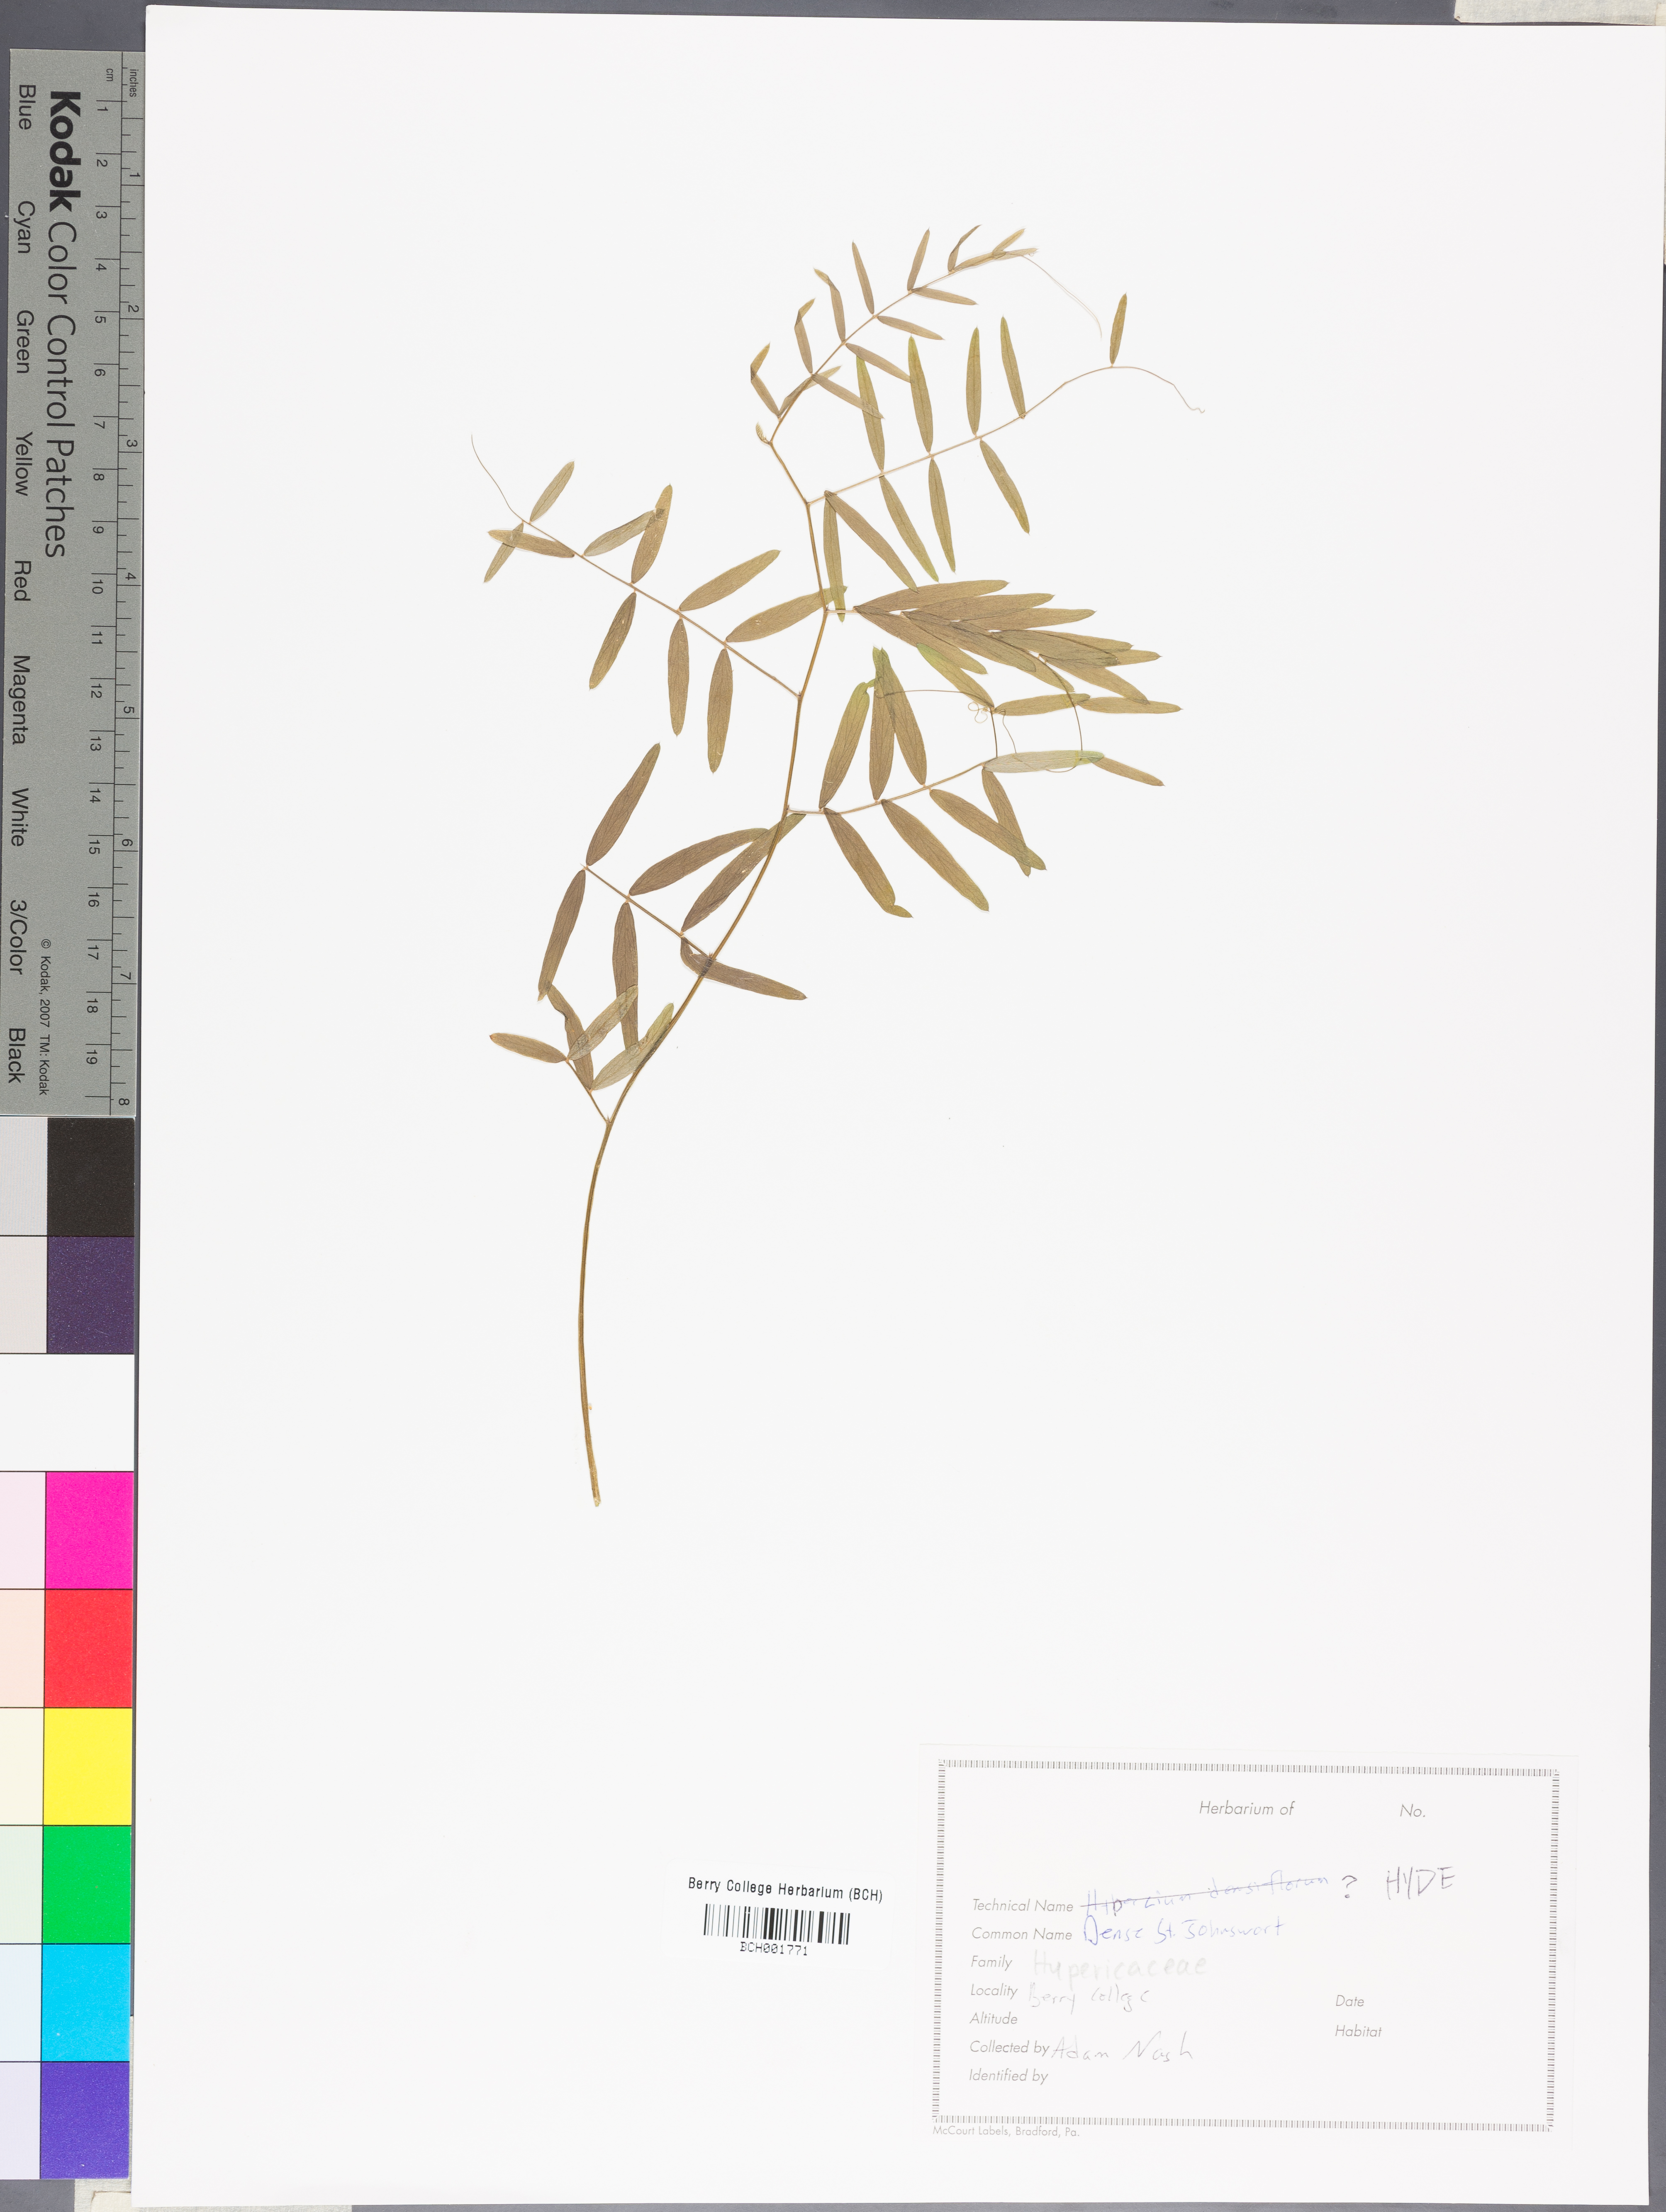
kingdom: Plantae
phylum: Tracheophyta
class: Magnoliopsida
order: Malpighiales
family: Hypericaceae
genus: Hypericum
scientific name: Hypericum densiflorum
